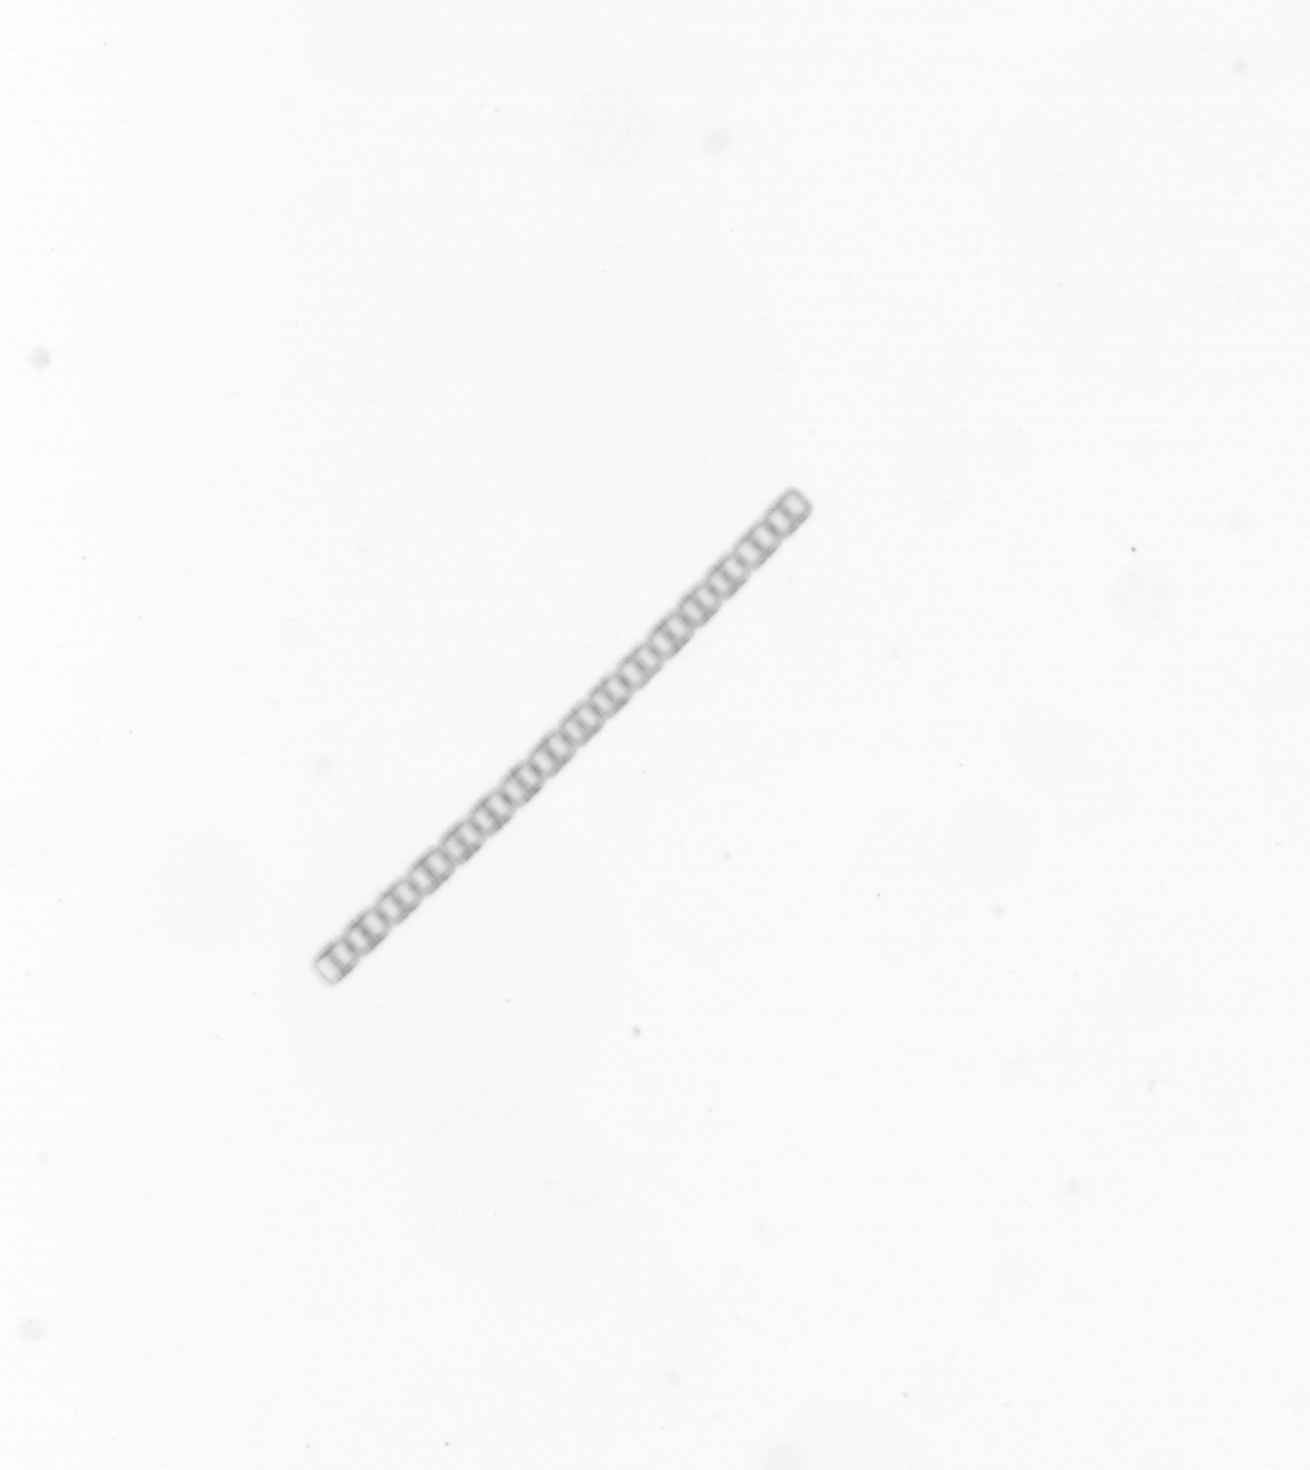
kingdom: Chromista
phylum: Ochrophyta
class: Bacillariophyceae
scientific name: Bacillariophyceae
